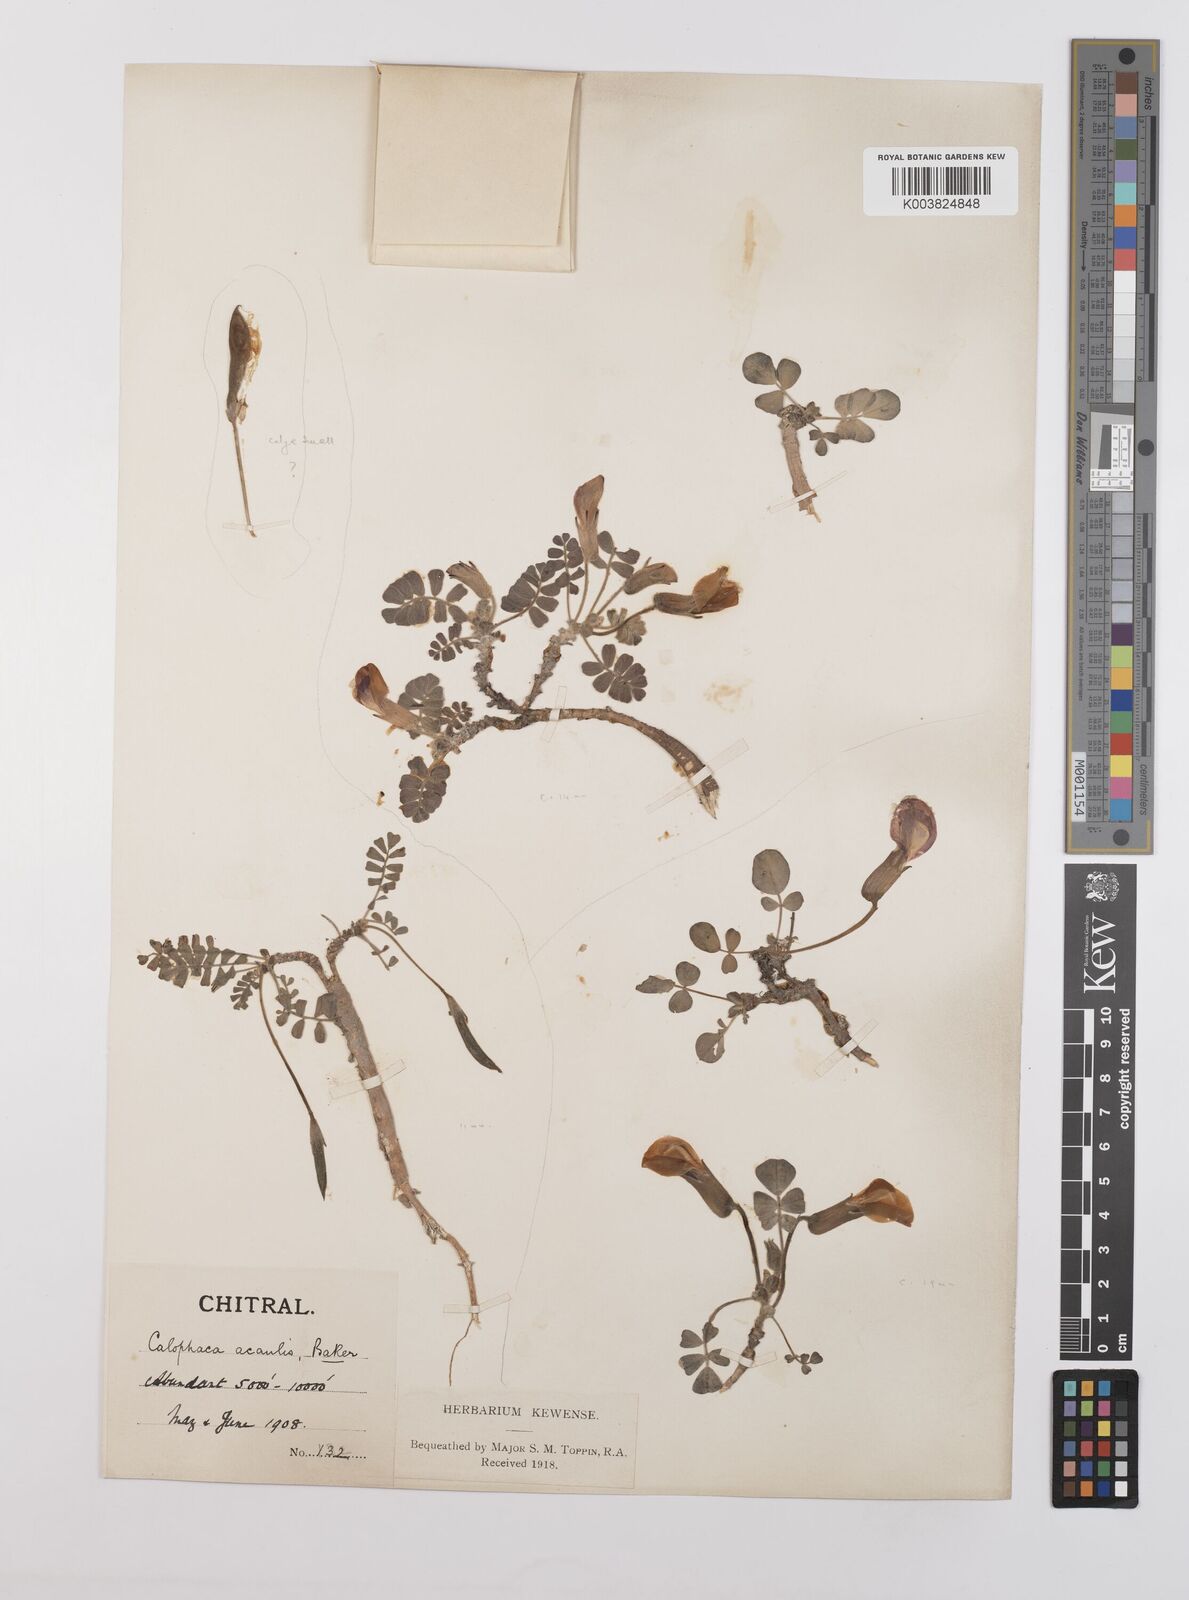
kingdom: Plantae
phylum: Tracheophyta
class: Magnoliopsida
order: Fabales
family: Fabaceae
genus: Chesneya
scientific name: Chesneya acaulis
